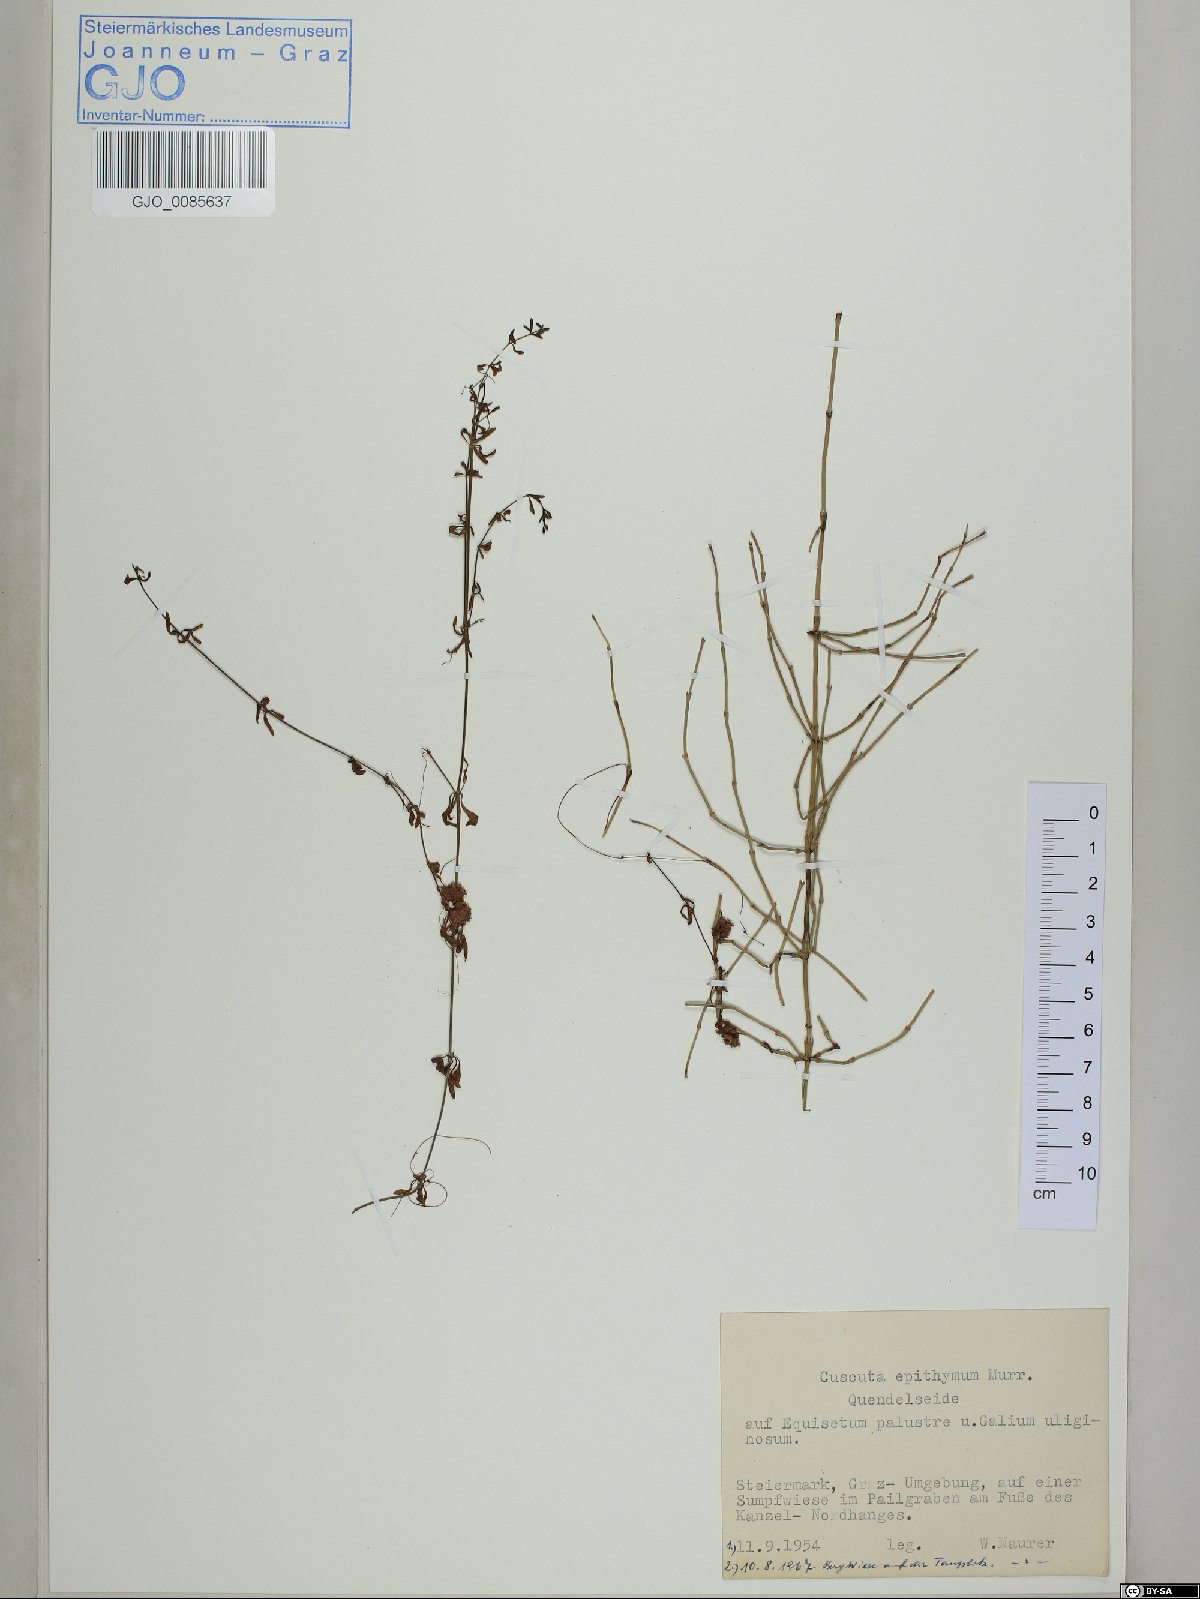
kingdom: Plantae
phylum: Tracheophyta
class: Magnoliopsida
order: Solanales
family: Convolvulaceae
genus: Cuscuta
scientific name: Cuscuta epithymum
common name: Clover dodder
